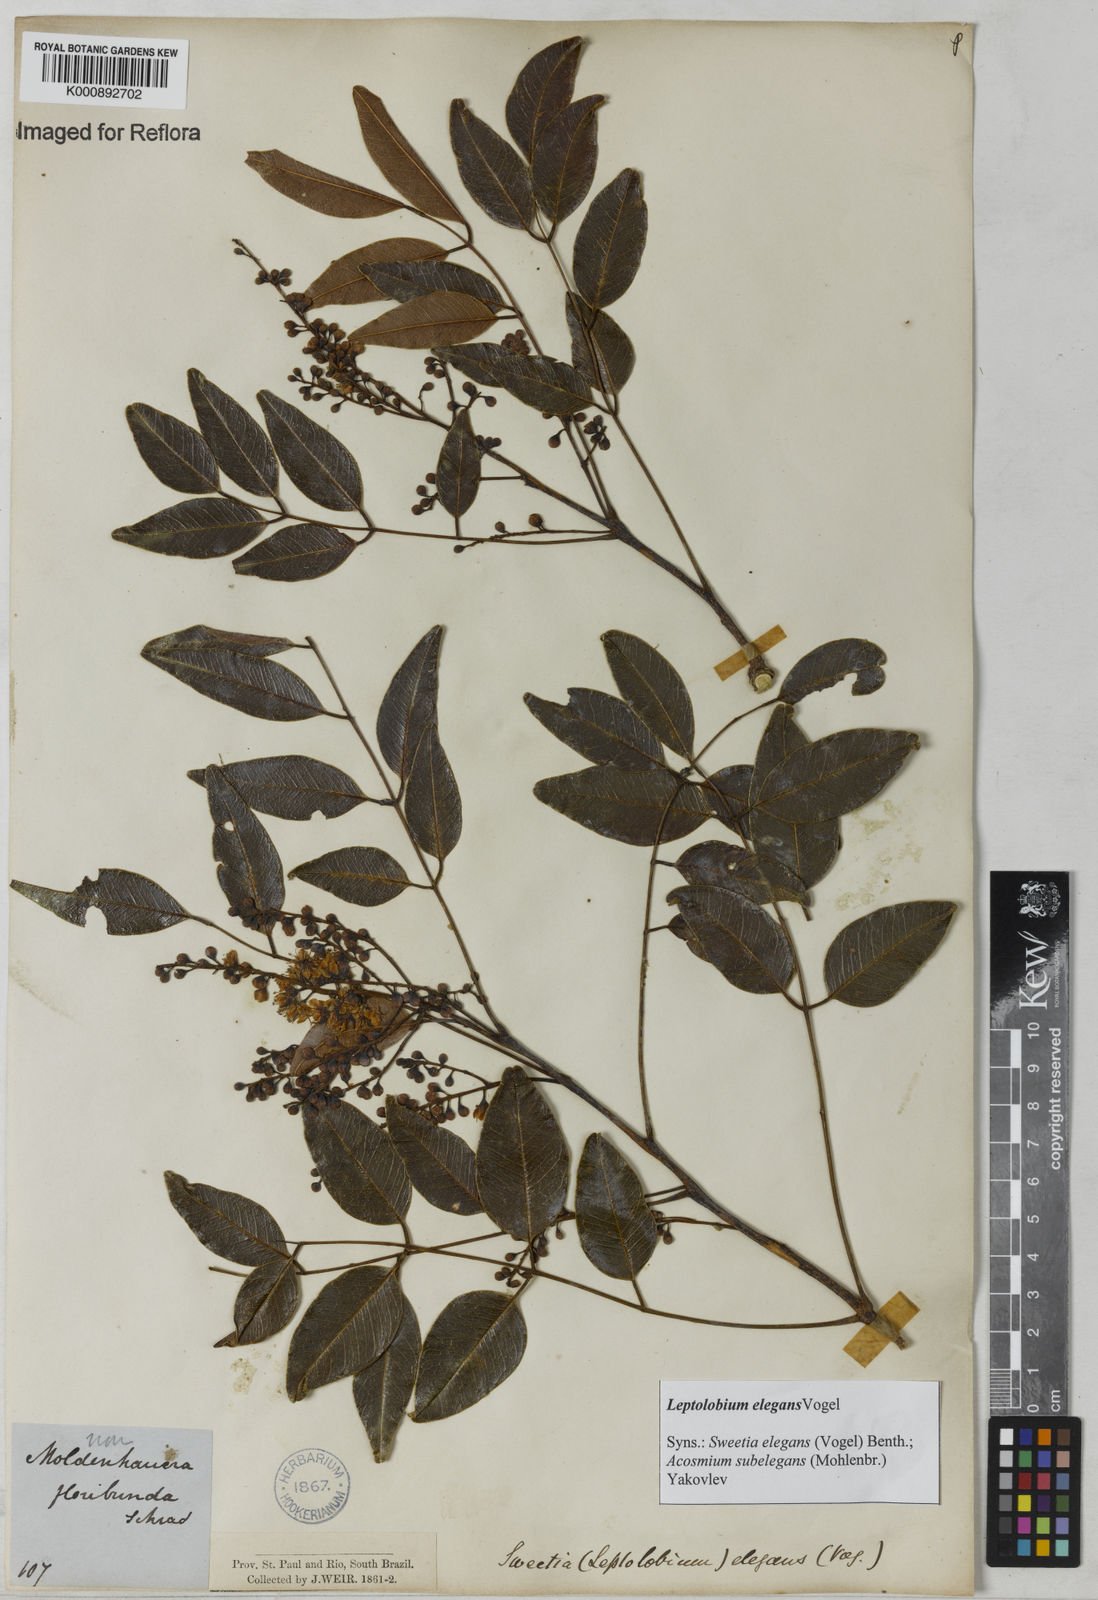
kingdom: Plantae
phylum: Tracheophyta
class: Magnoliopsida
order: Fabales
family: Fabaceae
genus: Leptolobium
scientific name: Leptolobium elegans
